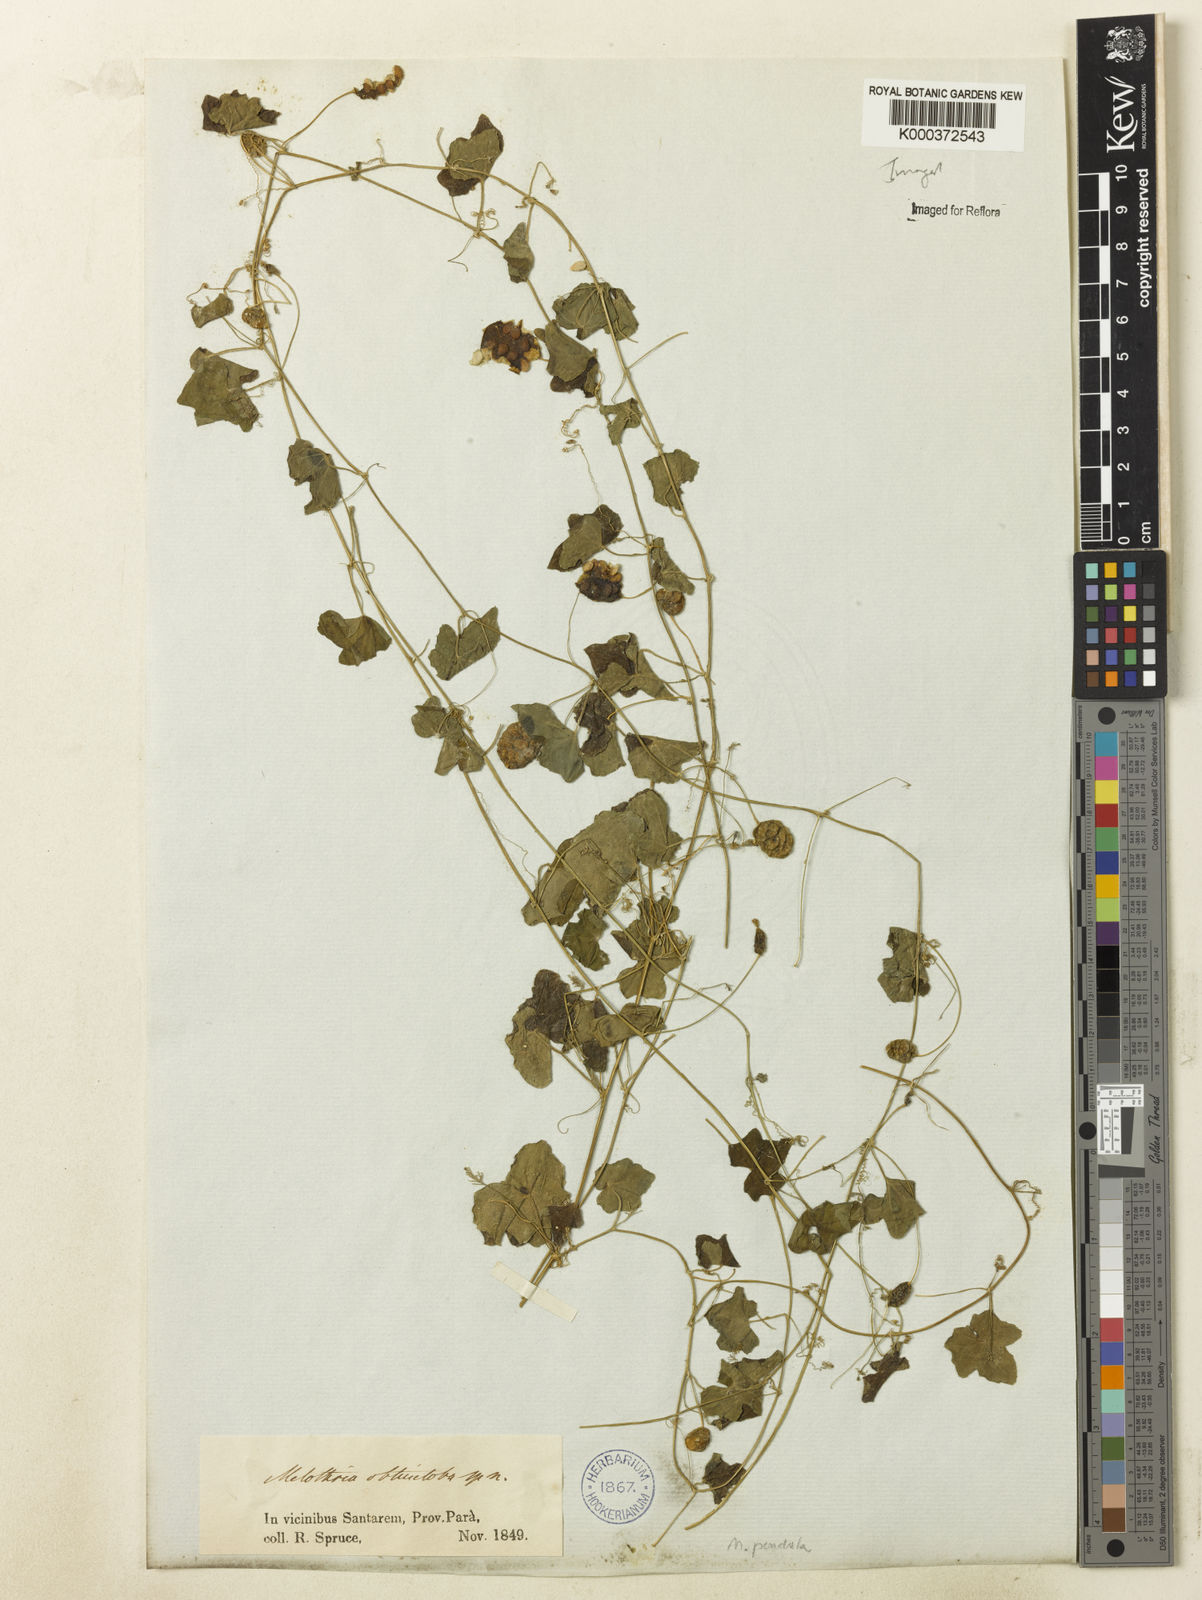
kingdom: Plantae
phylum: Tracheophyta
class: Magnoliopsida
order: Cucurbitales
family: Cucurbitaceae
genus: Melothria
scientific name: Melothria
